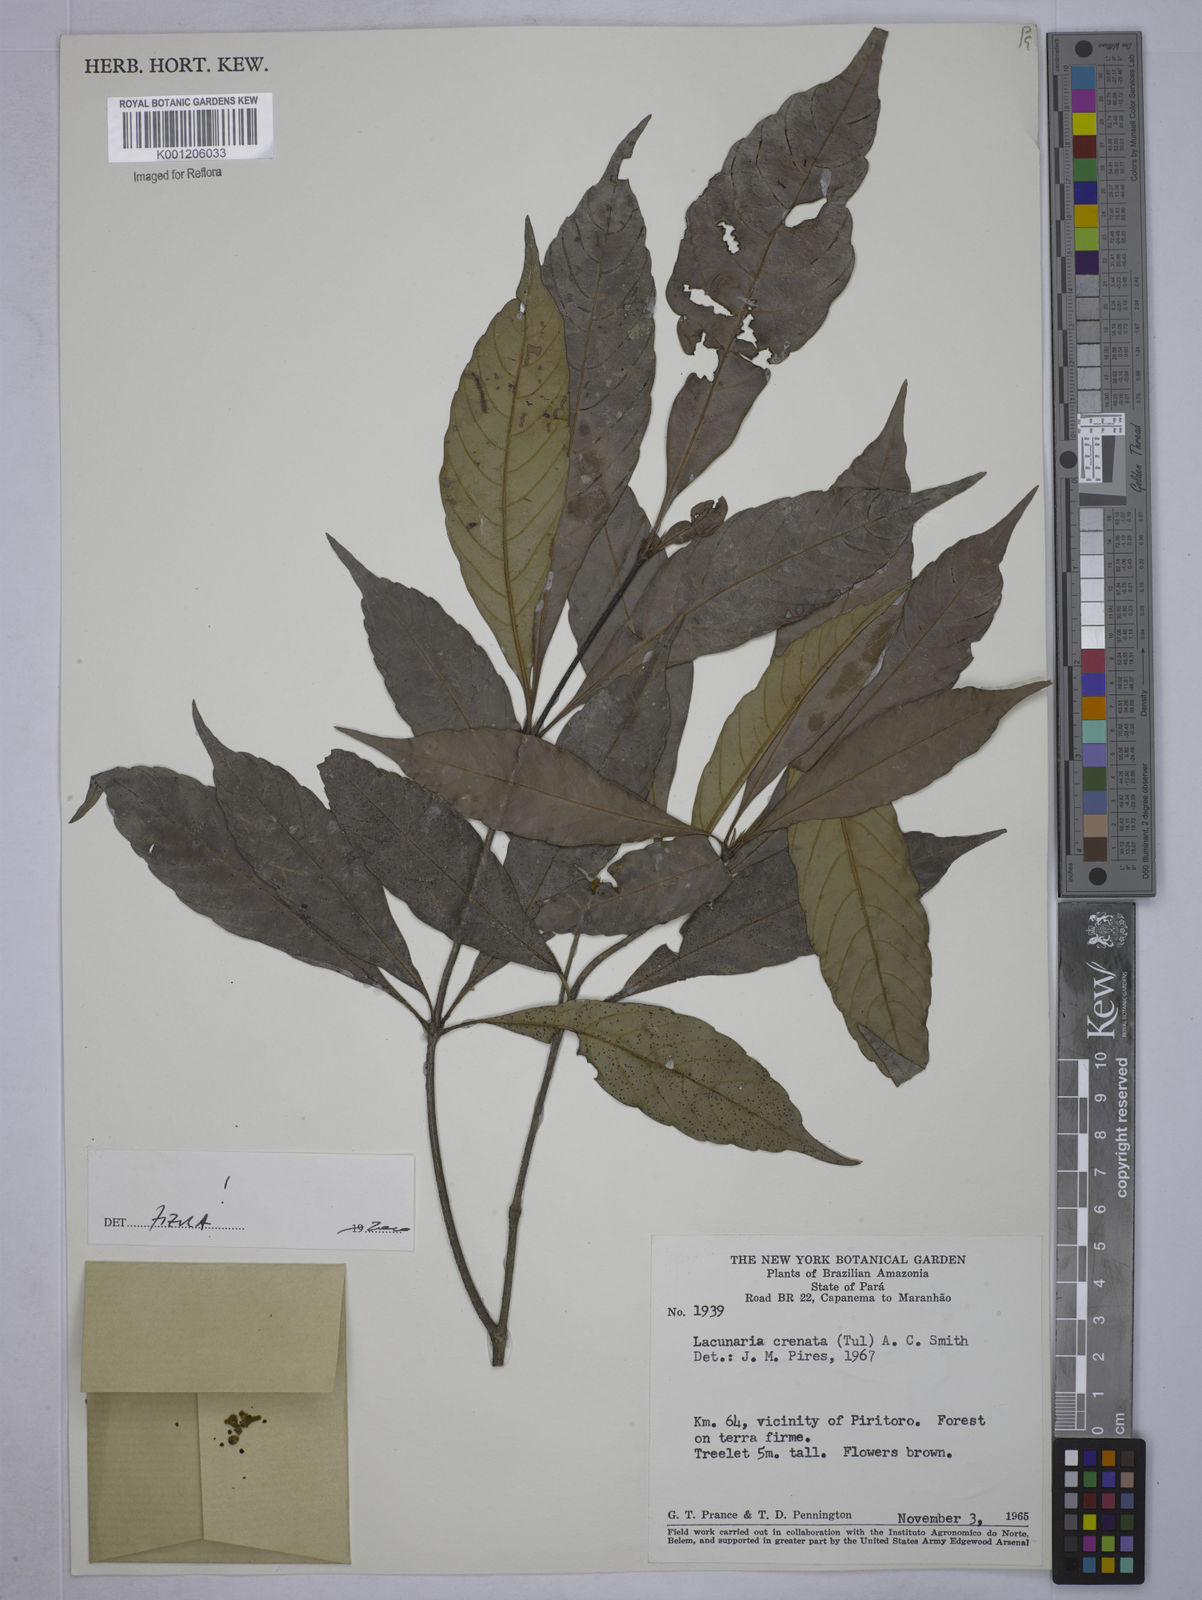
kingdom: Plantae
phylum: Tracheophyta
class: Magnoliopsida
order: Malpighiales
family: Quiinaceae
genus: Lacunaria
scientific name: Lacunaria crenata
